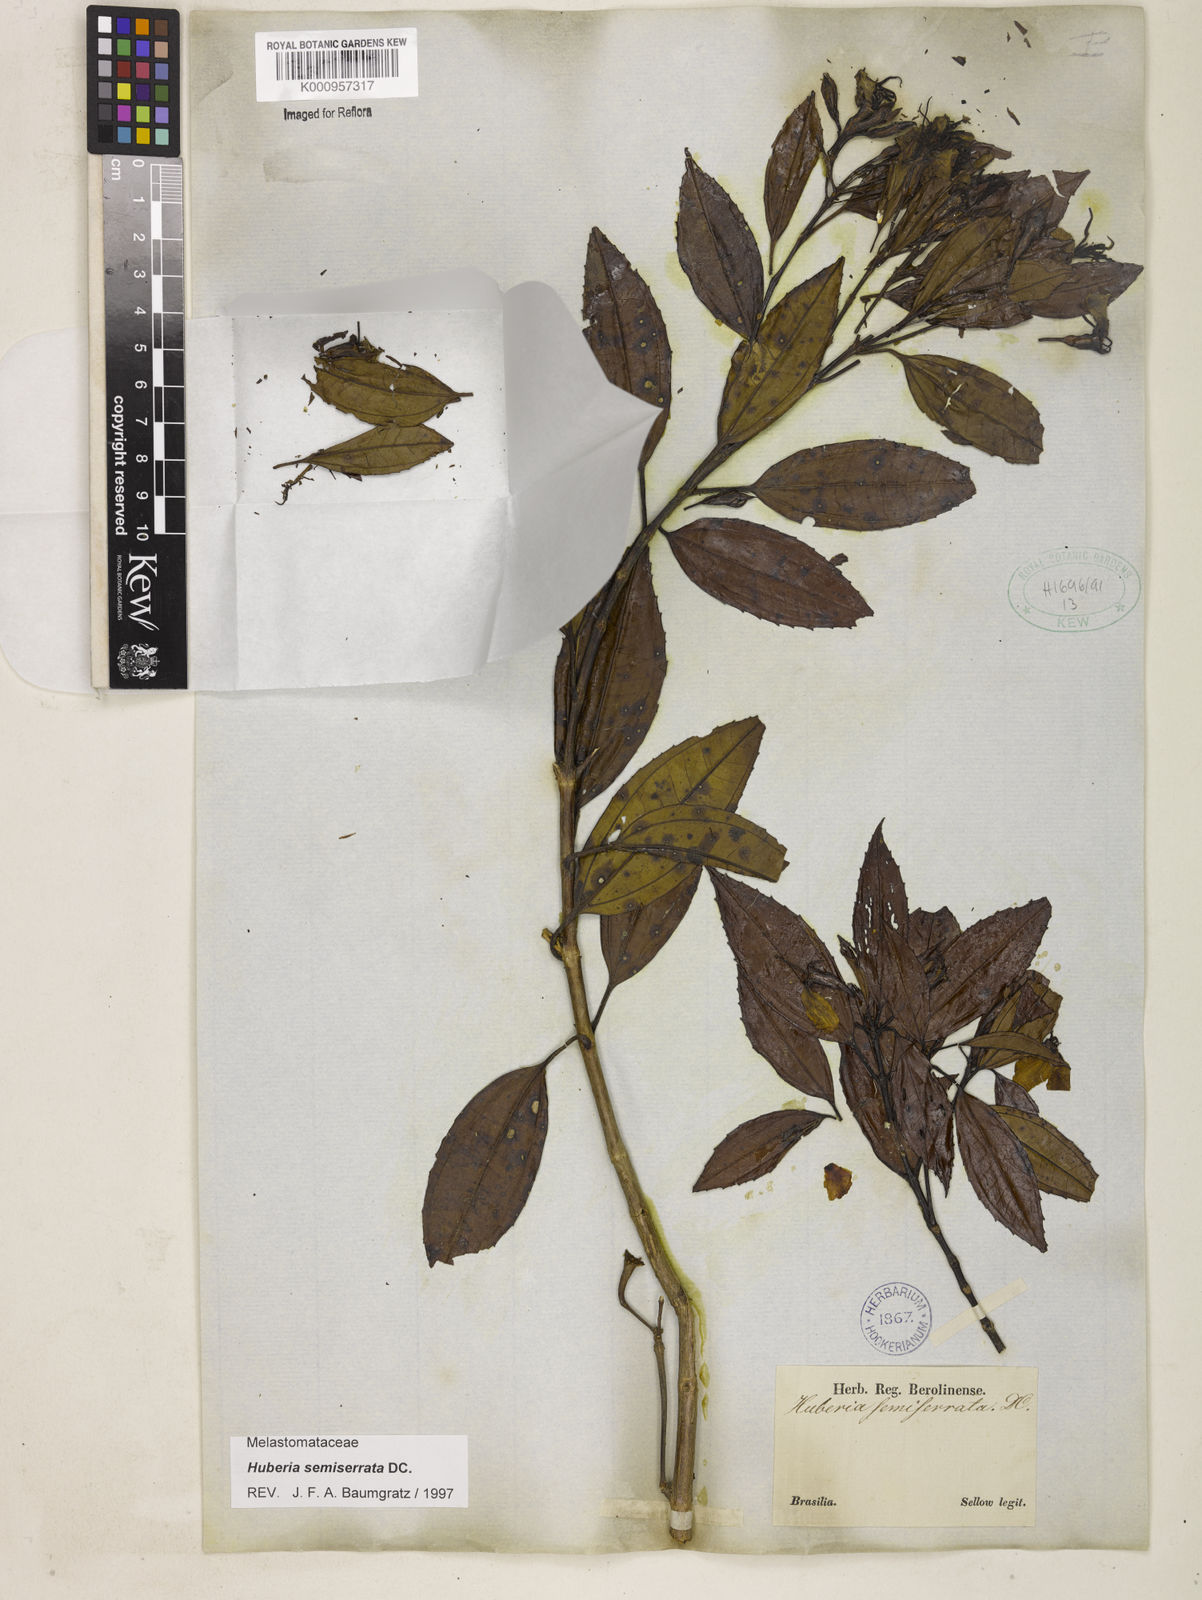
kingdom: Plantae
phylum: Tracheophyta
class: Magnoliopsida
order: Myrtales
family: Melastomataceae
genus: Huberia
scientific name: Huberia semiserrata
